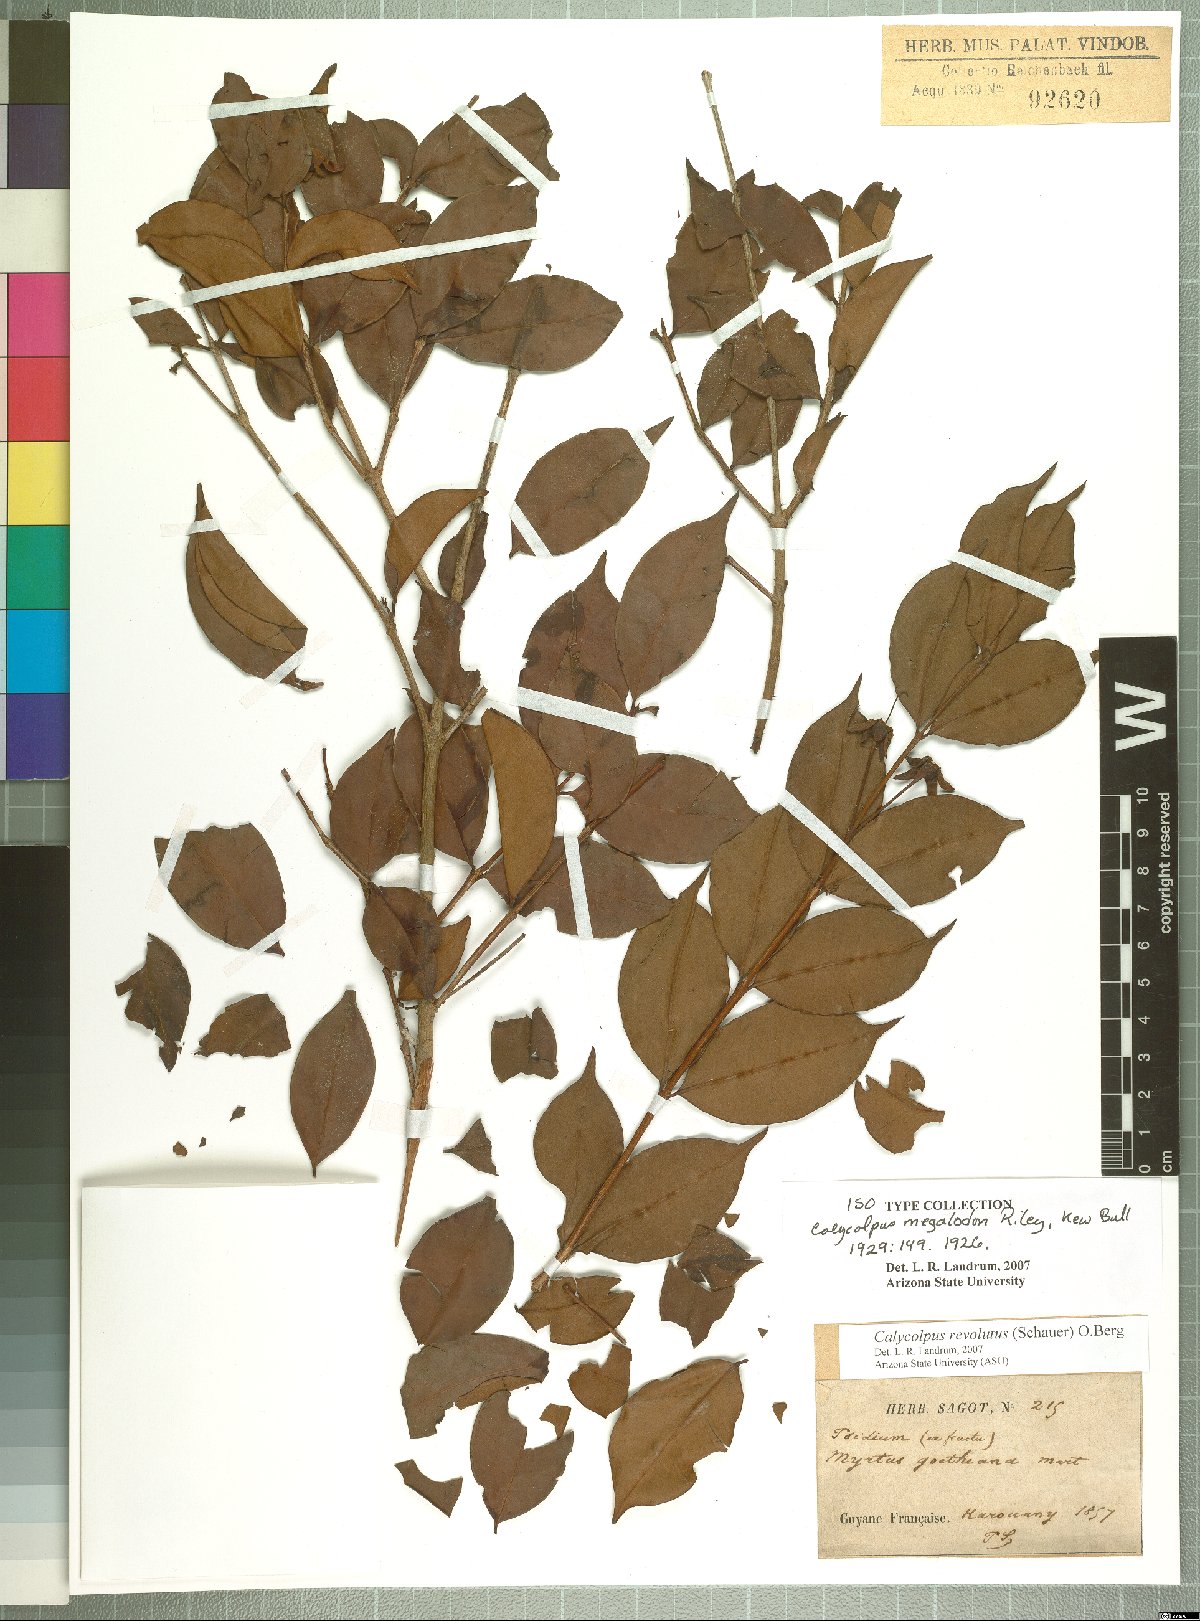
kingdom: Plantae
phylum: Tracheophyta
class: Magnoliopsida
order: Myrtales
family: Myrtaceae
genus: Calycolpus
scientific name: Calycolpus revolutus
